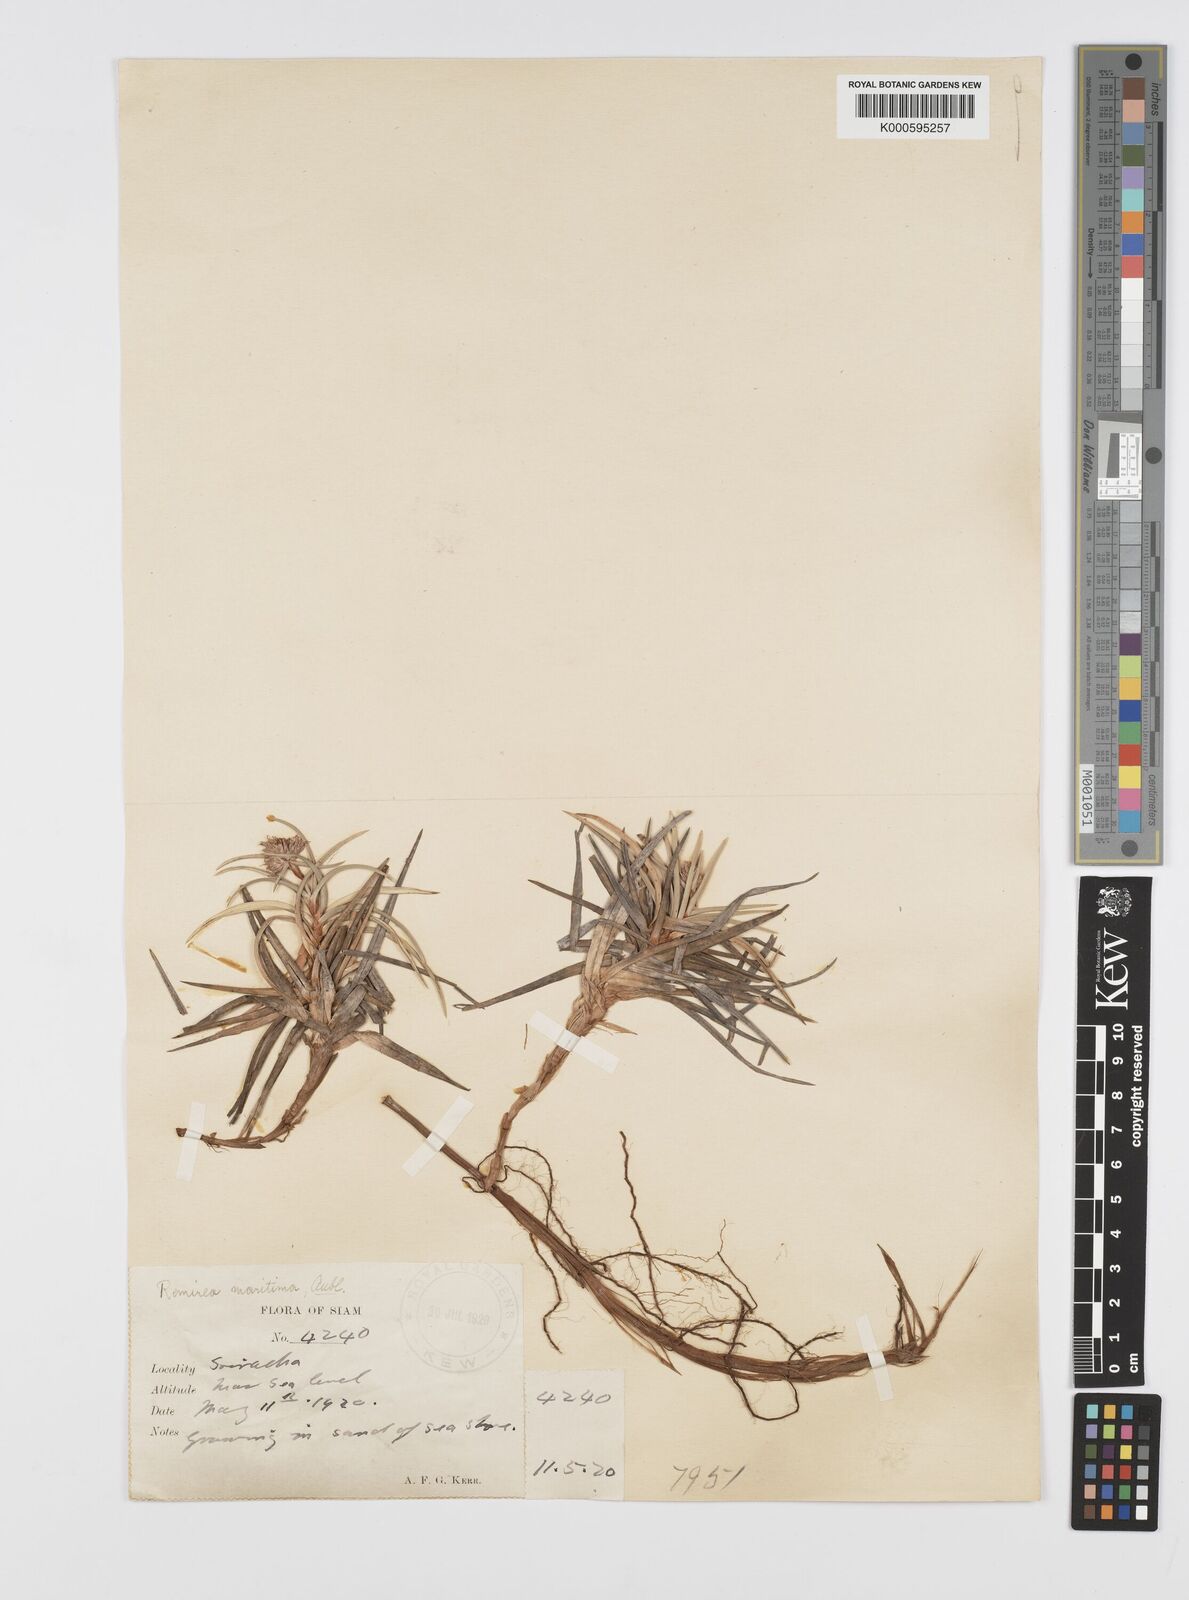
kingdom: Plantae
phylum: Tracheophyta
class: Liliopsida
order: Poales
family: Cyperaceae
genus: Cyperus
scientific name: Cyperus pedunculatus
